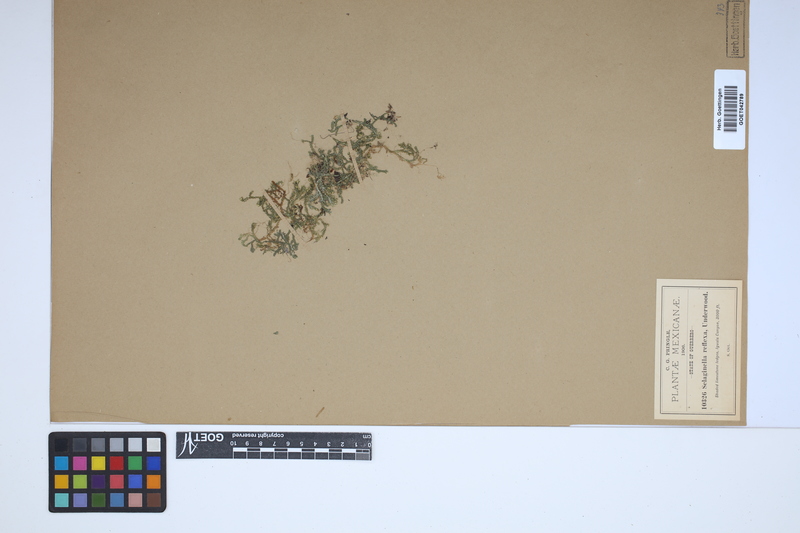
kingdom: Plantae
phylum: Tracheophyta
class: Lycopodiopsida
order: Selaginellales
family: Selaginellaceae
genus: Selaginella
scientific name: Selaginella reflexa
